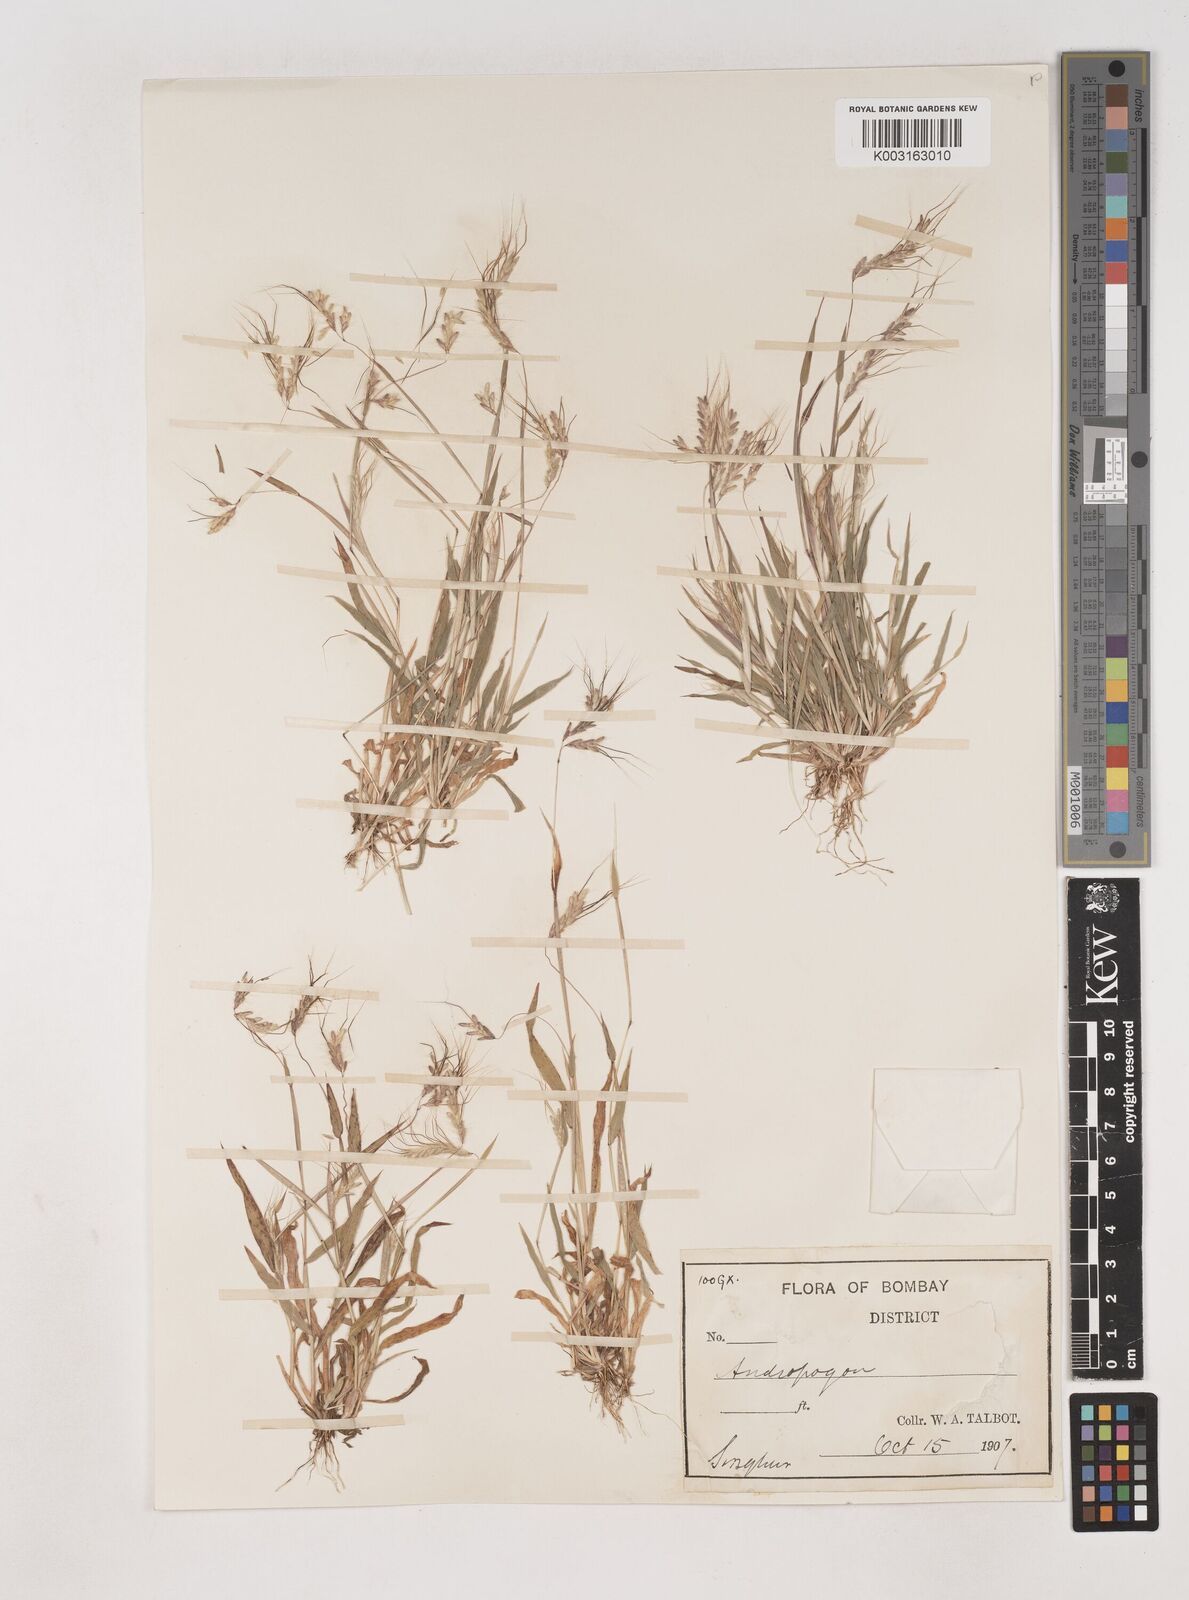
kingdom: Plantae
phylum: Tracheophyta
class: Liliopsida
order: Poales
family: Poaceae
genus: Dichanthium
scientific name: Dichanthium panchganiense
